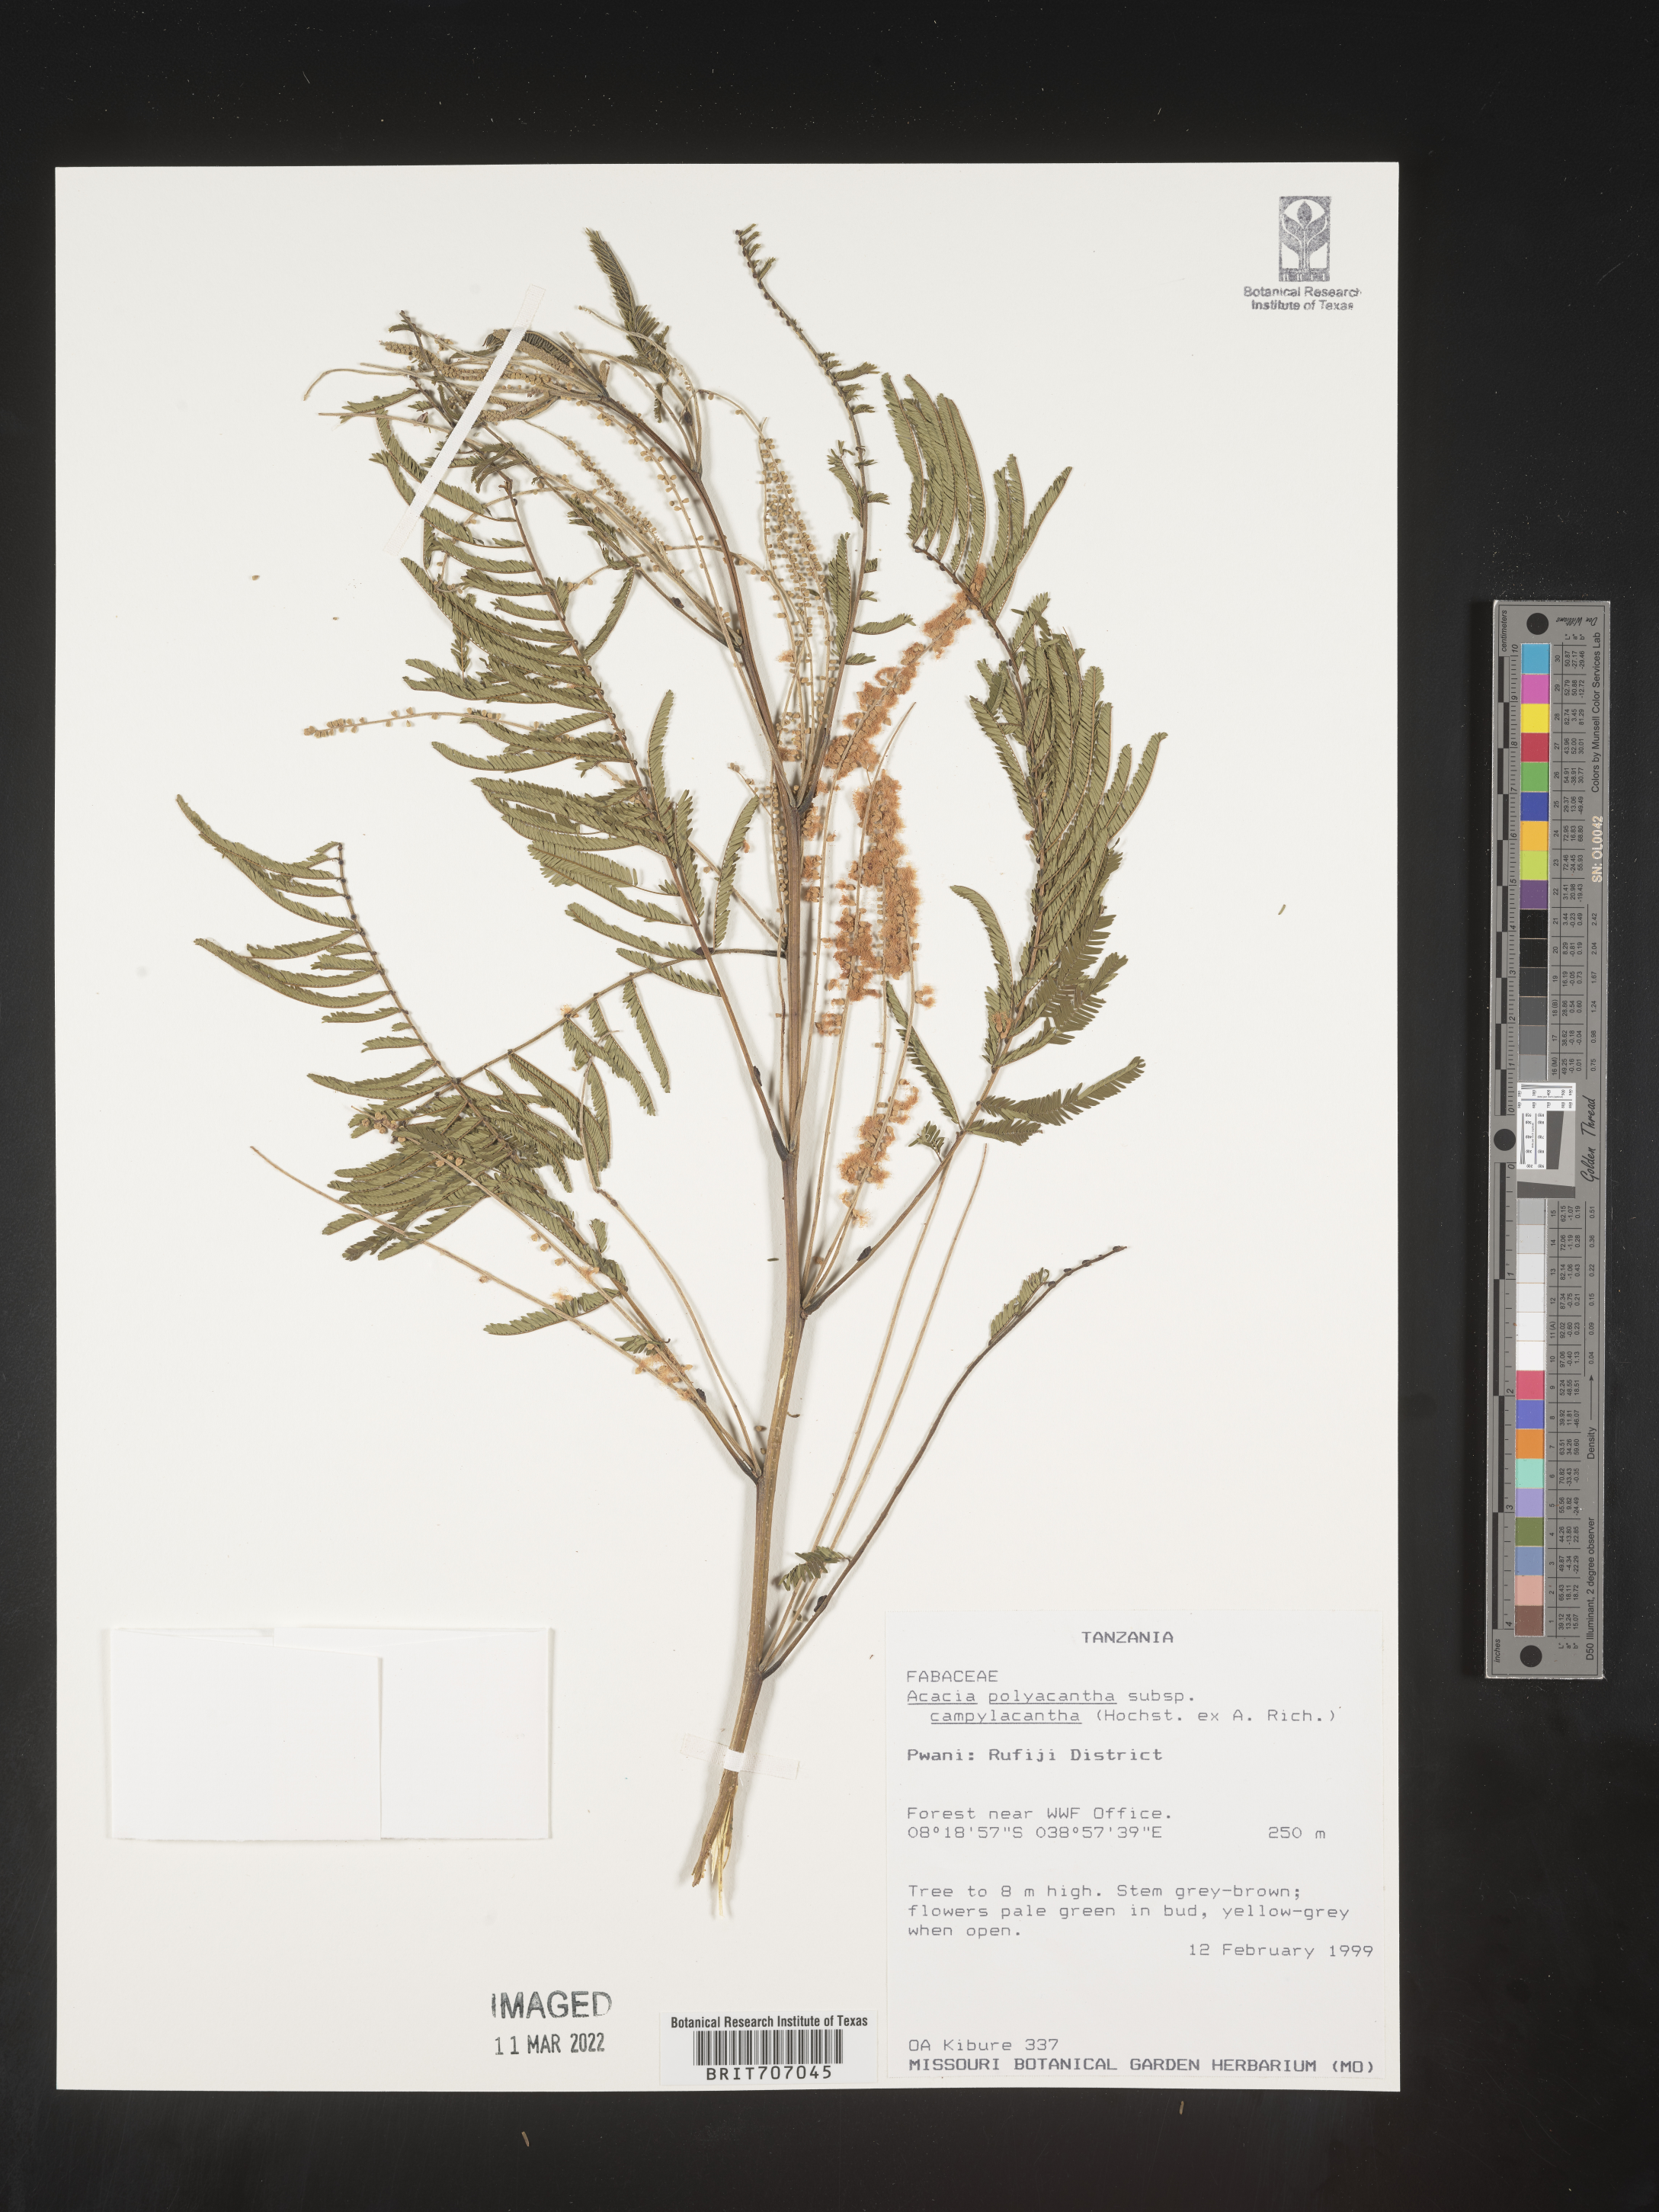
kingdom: Plantae
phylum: Tracheophyta
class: Magnoliopsida
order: Fabales
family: Fabaceae
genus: Acacia
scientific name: Acacia
